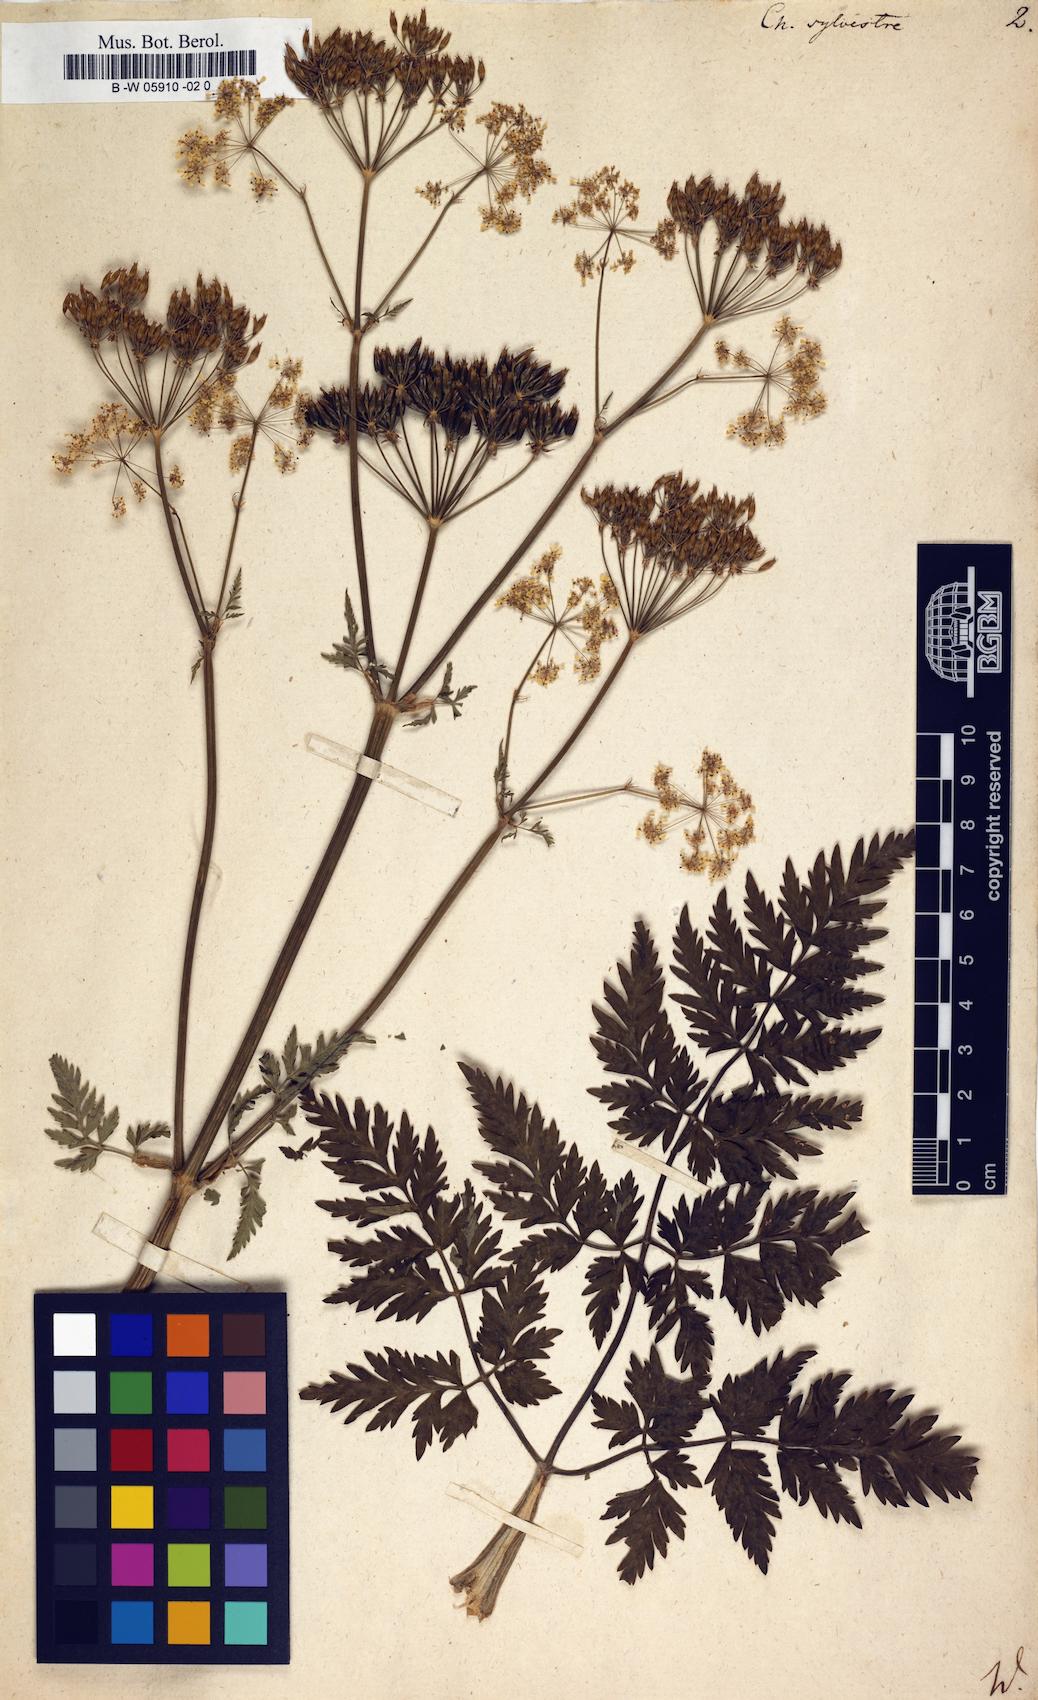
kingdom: Plantae
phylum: Tracheophyta
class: Magnoliopsida
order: Apiales
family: Apiaceae
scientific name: Apiaceae
